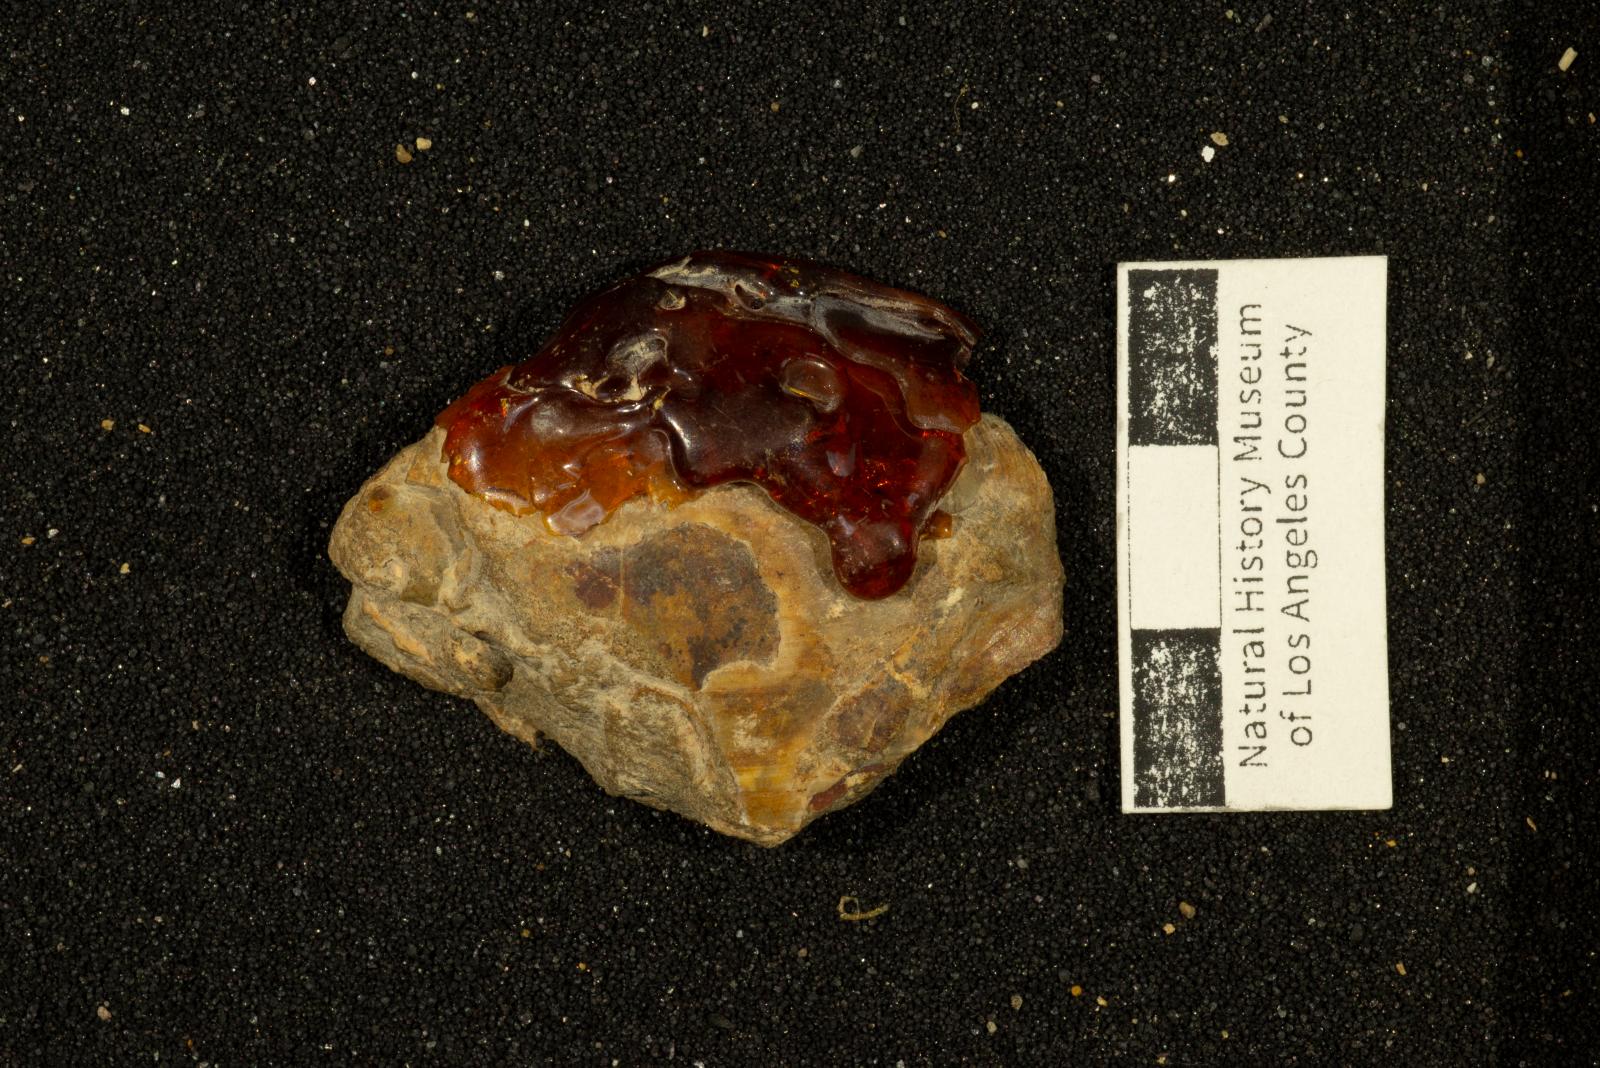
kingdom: Animalia
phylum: Mollusca
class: Bivalvia
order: Venerida
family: Mactridae
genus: Willimactra
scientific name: Willimactra Tellina mathewsonii
